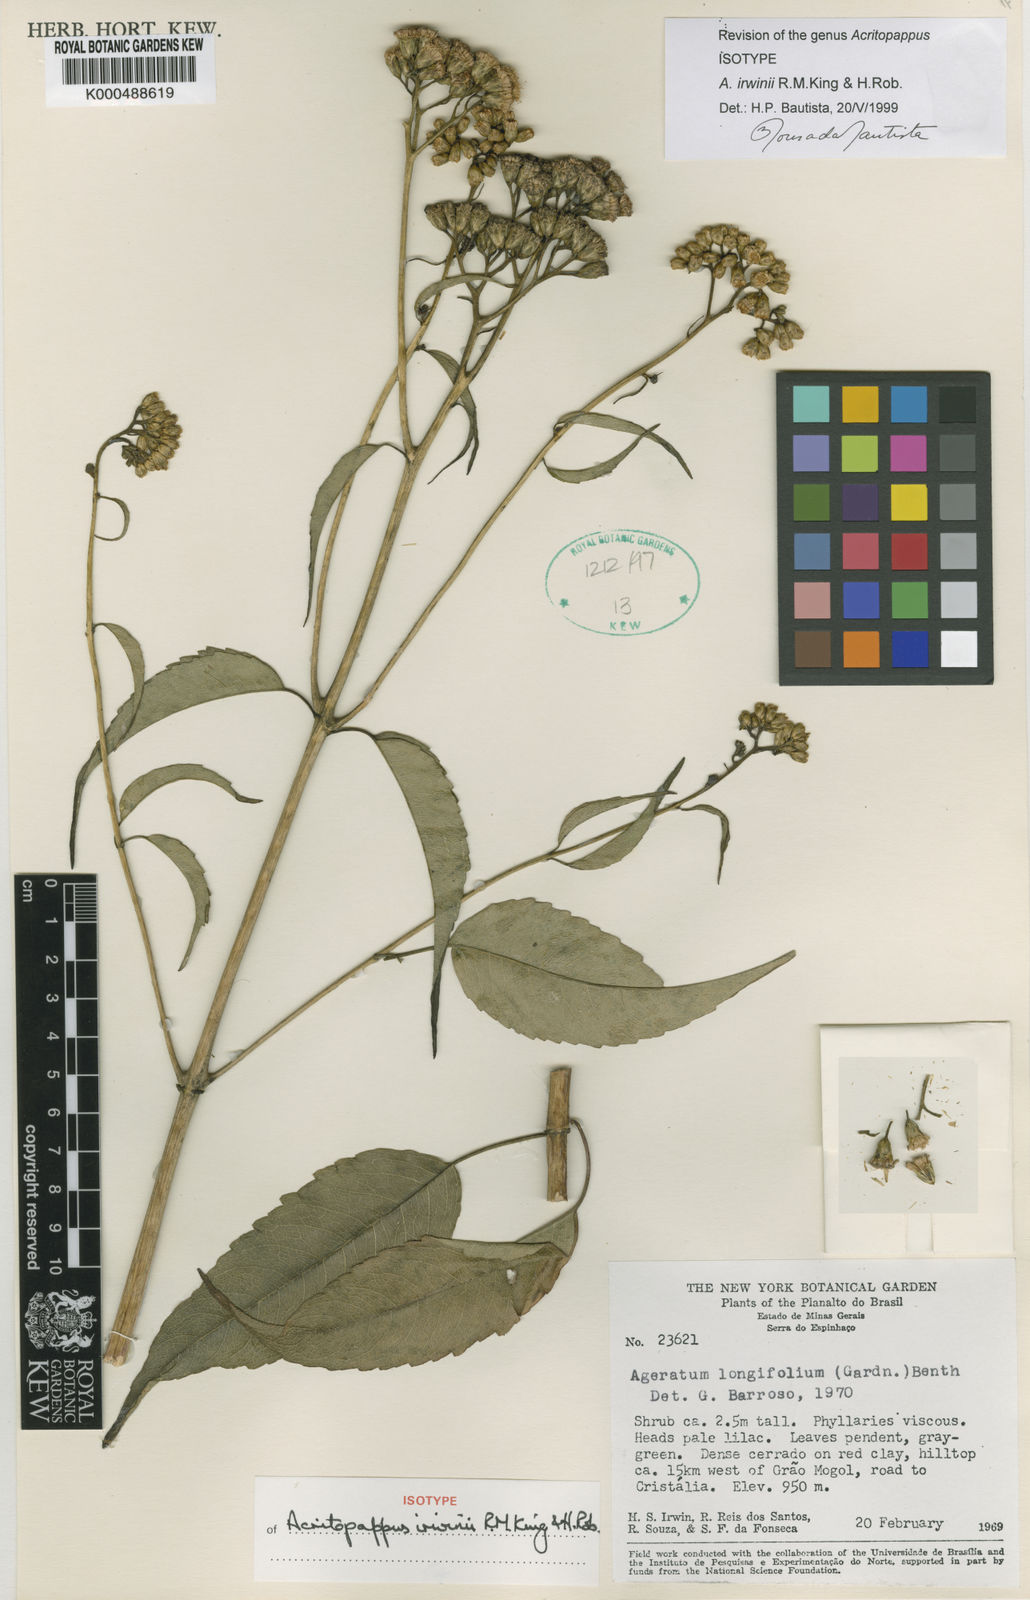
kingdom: Plantae
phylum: Tracheophyta
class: Magnoliopsida
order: Asterales
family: Asteraceae
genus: Acritopappus
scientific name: Acritopappus irwinii
